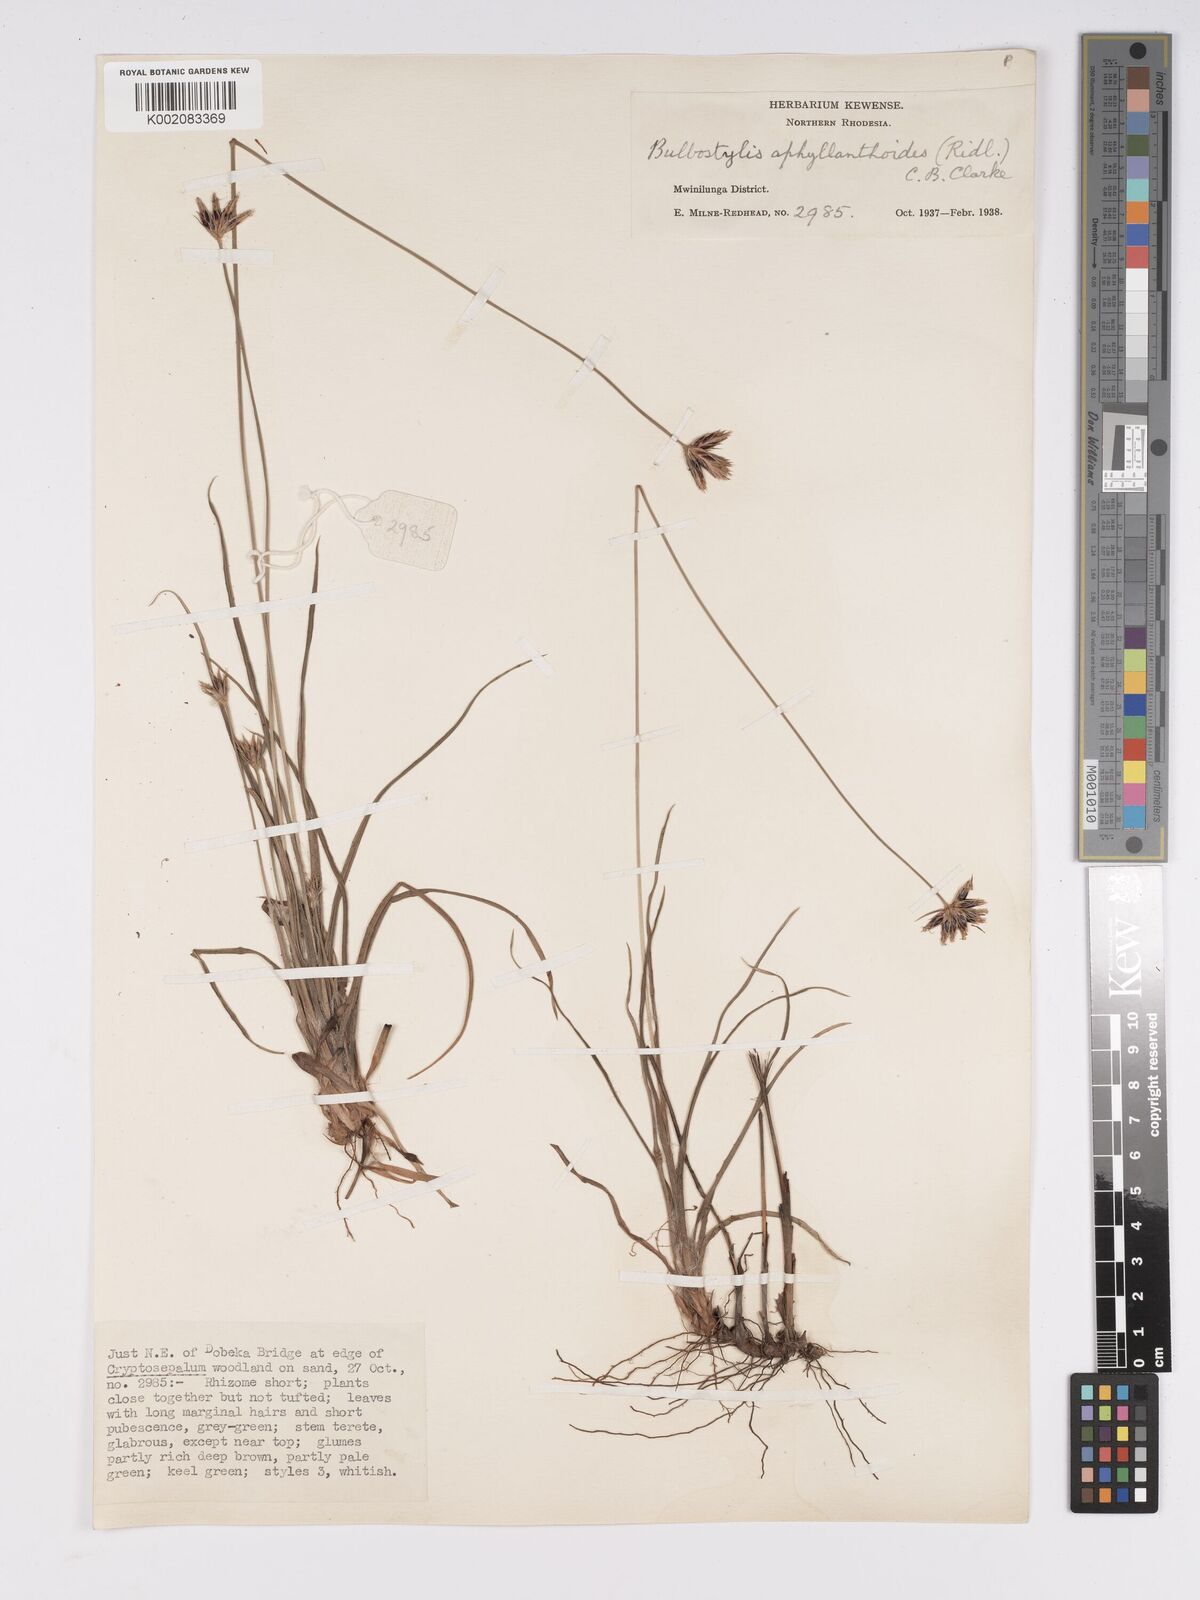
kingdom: Plantae
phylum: Tracheophyta
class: Liliopsida
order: Poales
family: Cyperaceae
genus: Bulbostylis
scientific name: Bulbostylis pilosa
